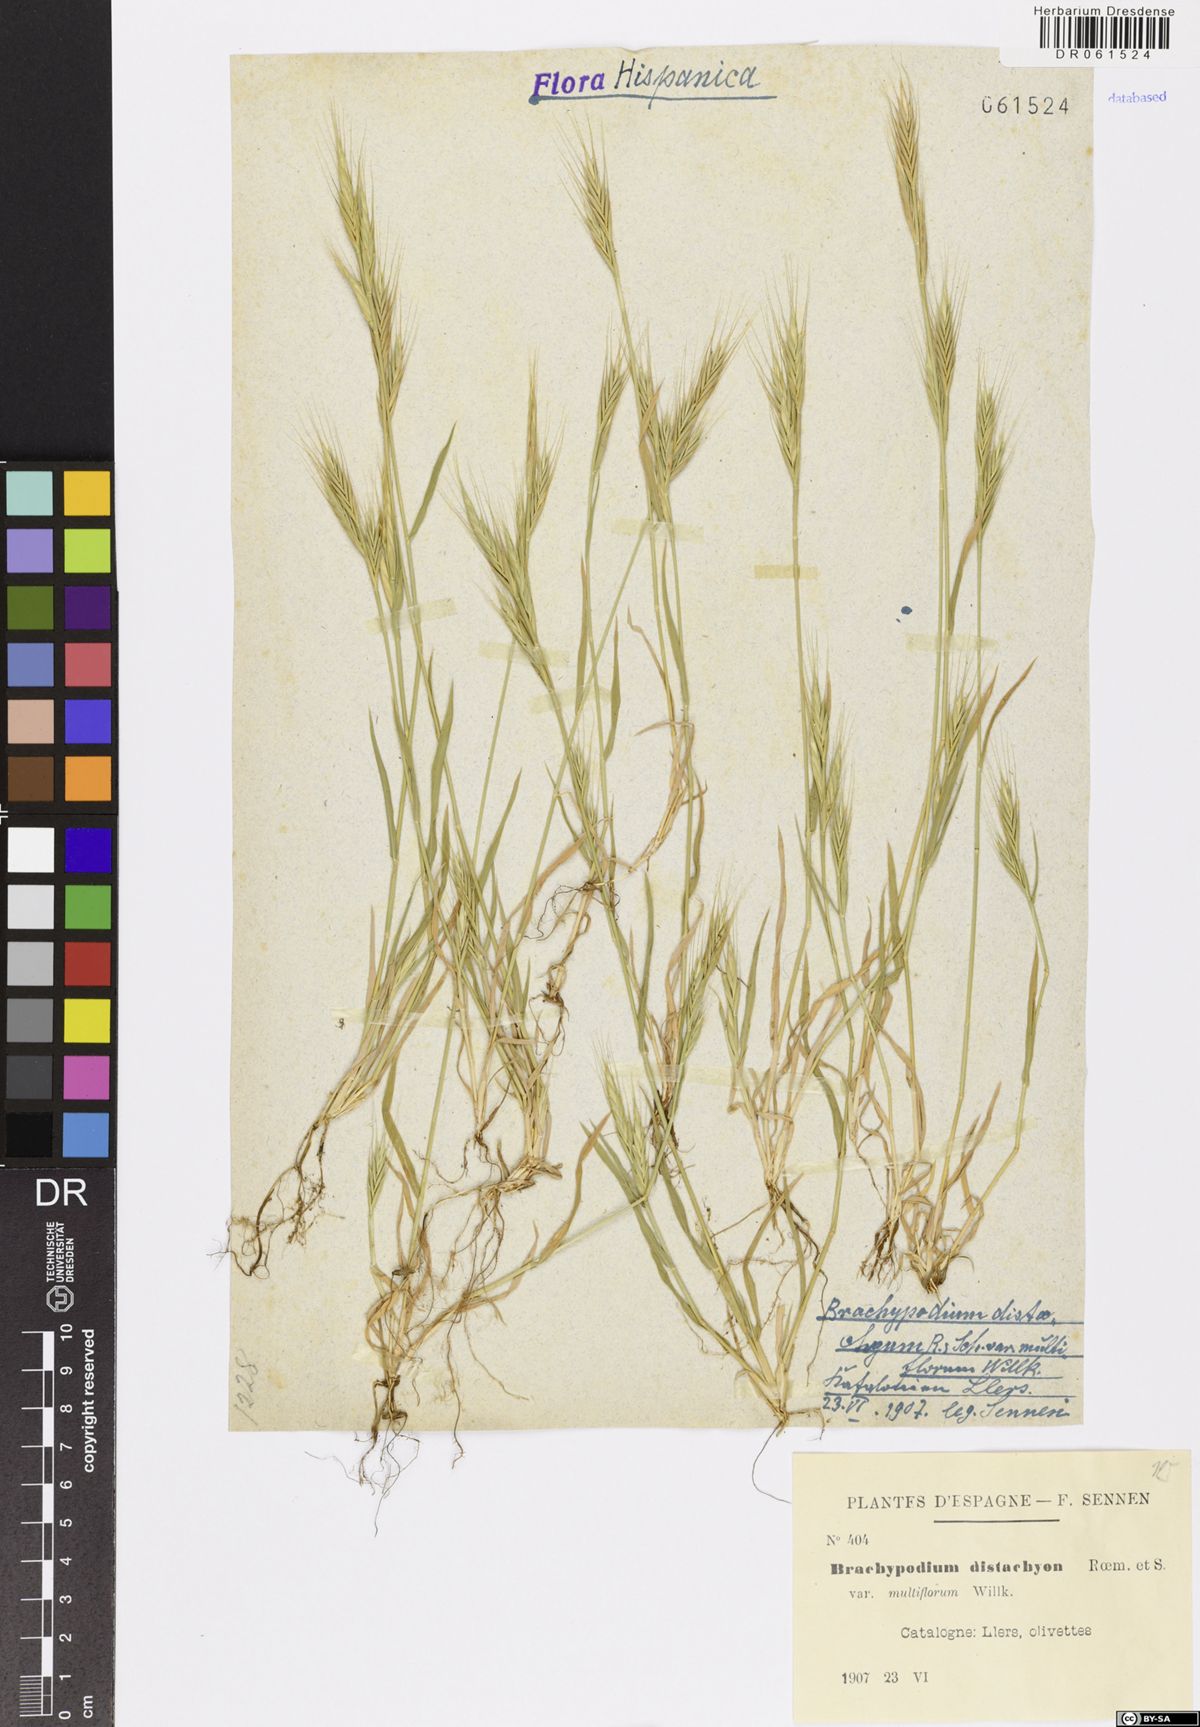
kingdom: Plantae
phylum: Tracheophyta
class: Liliopsida
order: Poales
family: Poaceae
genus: Brachypodium
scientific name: Brachypodium distachyon
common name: Stiff brome
